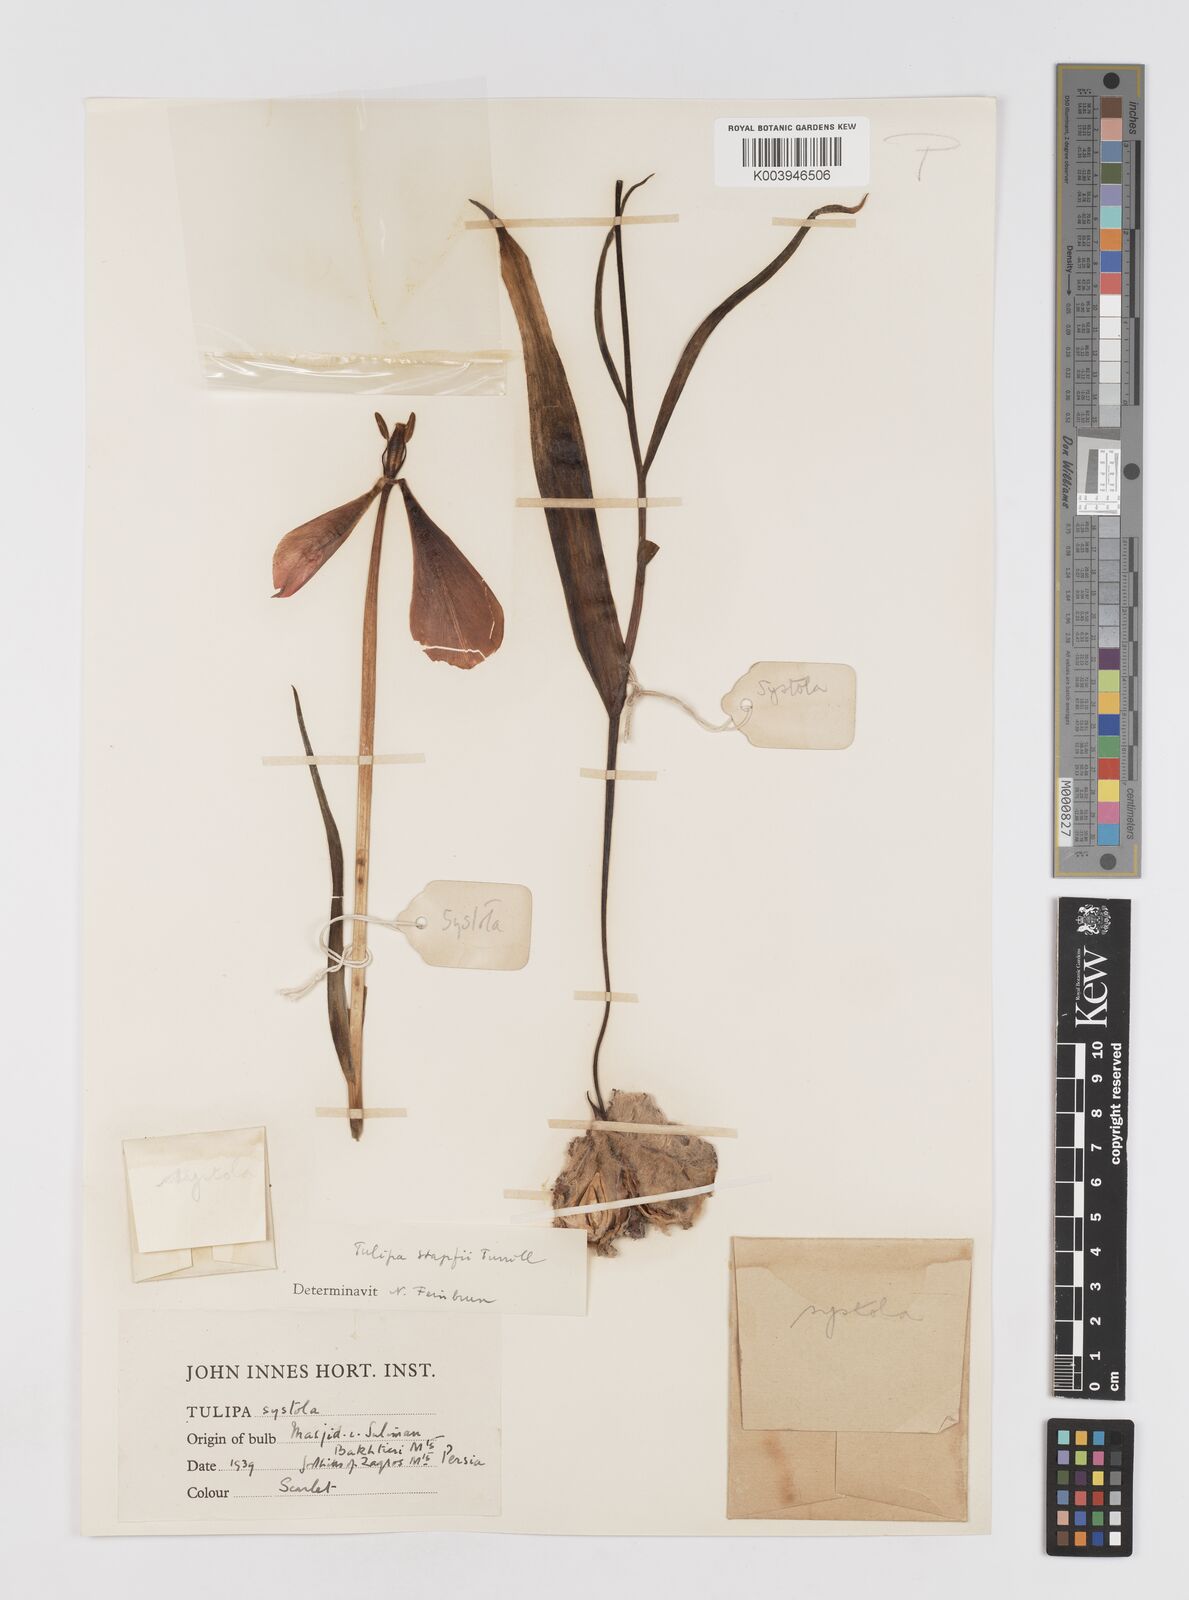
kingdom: Plantae
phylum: Tracheophyta
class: Liliopsida
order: Liliales
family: Liliaceae
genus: Tulipa
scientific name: Tulipa systola
